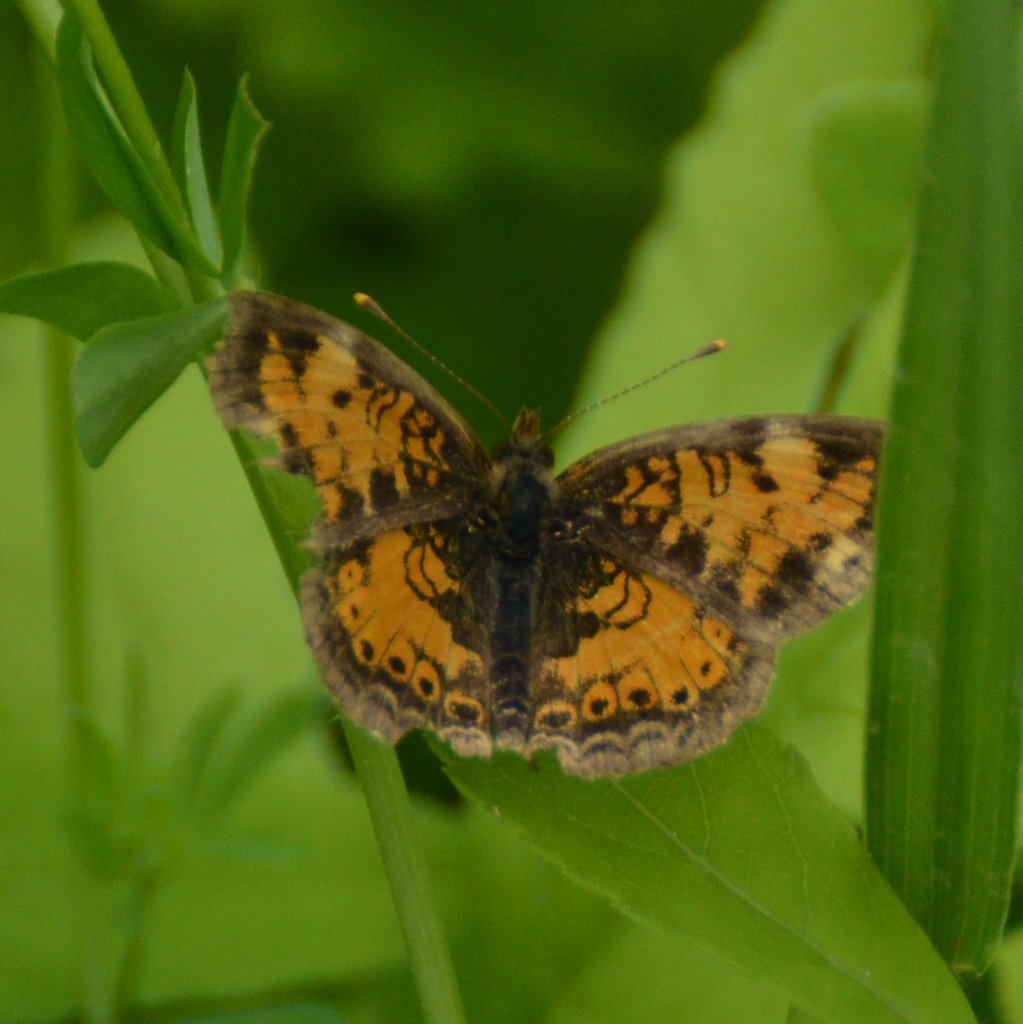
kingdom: Animalia
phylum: Arthropoda
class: Insecta
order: Lepidoptera
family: Nymphalidae
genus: Phyciodes
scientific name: Phyciodes tharos
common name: Northern Crescent
